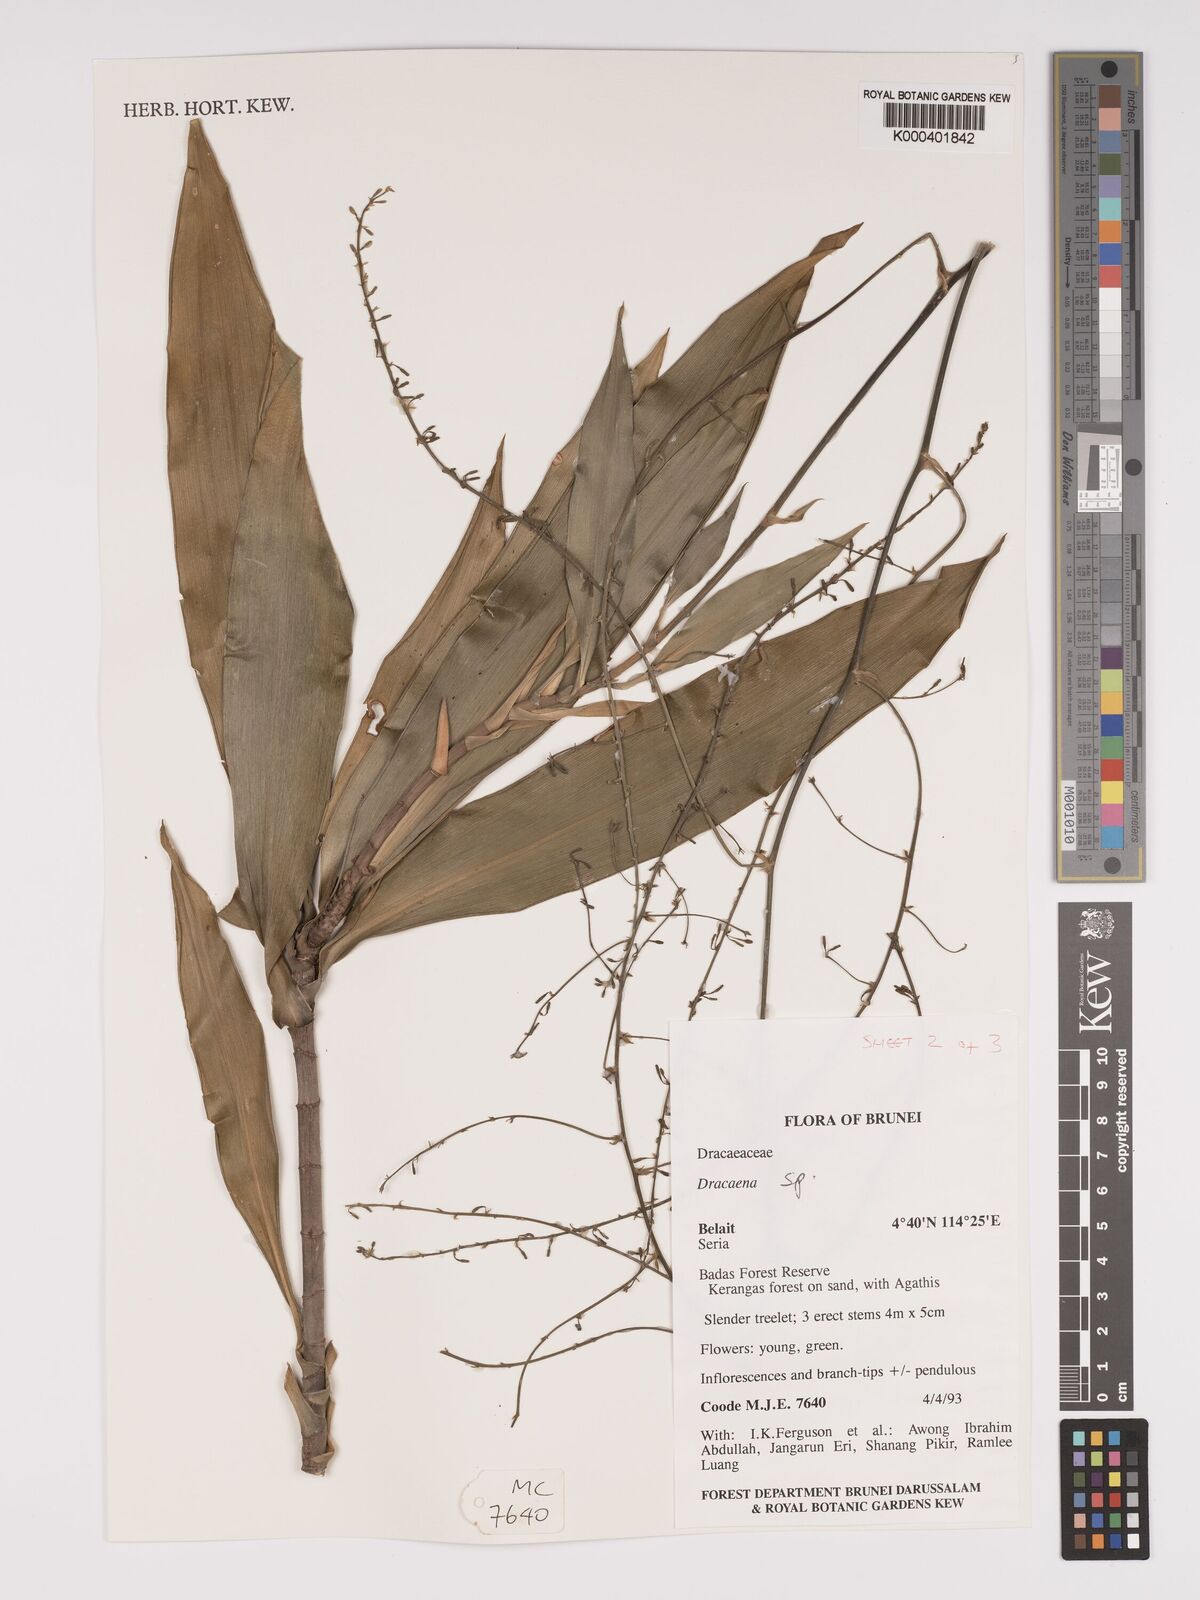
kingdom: Plantae
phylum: Tracheophyta
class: Liliopsida
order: Asparagales
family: Asparagaceae
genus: Dracaena
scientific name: Dracaena
